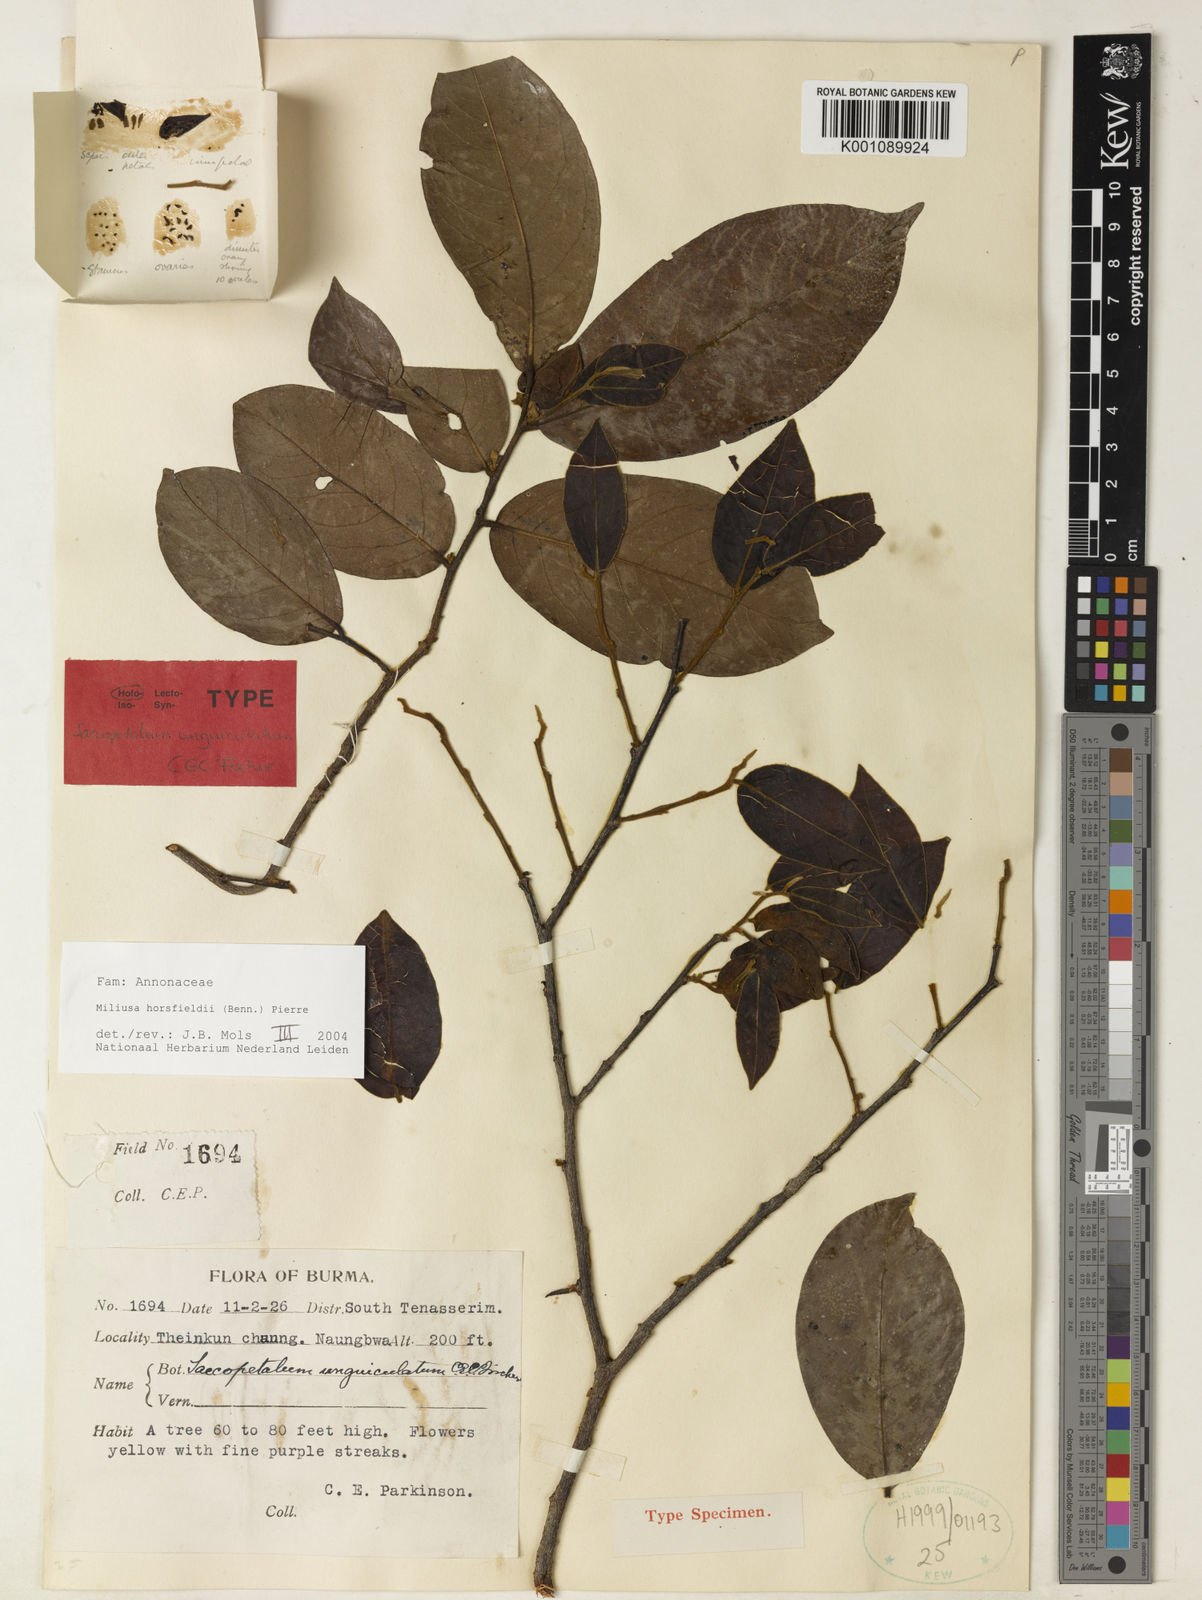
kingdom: Plantae
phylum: Tracheophyta
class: Magnoliopsida
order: Magnoliales
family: Annonaceae
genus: Miliusa
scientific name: Miliusa horsfieldii
